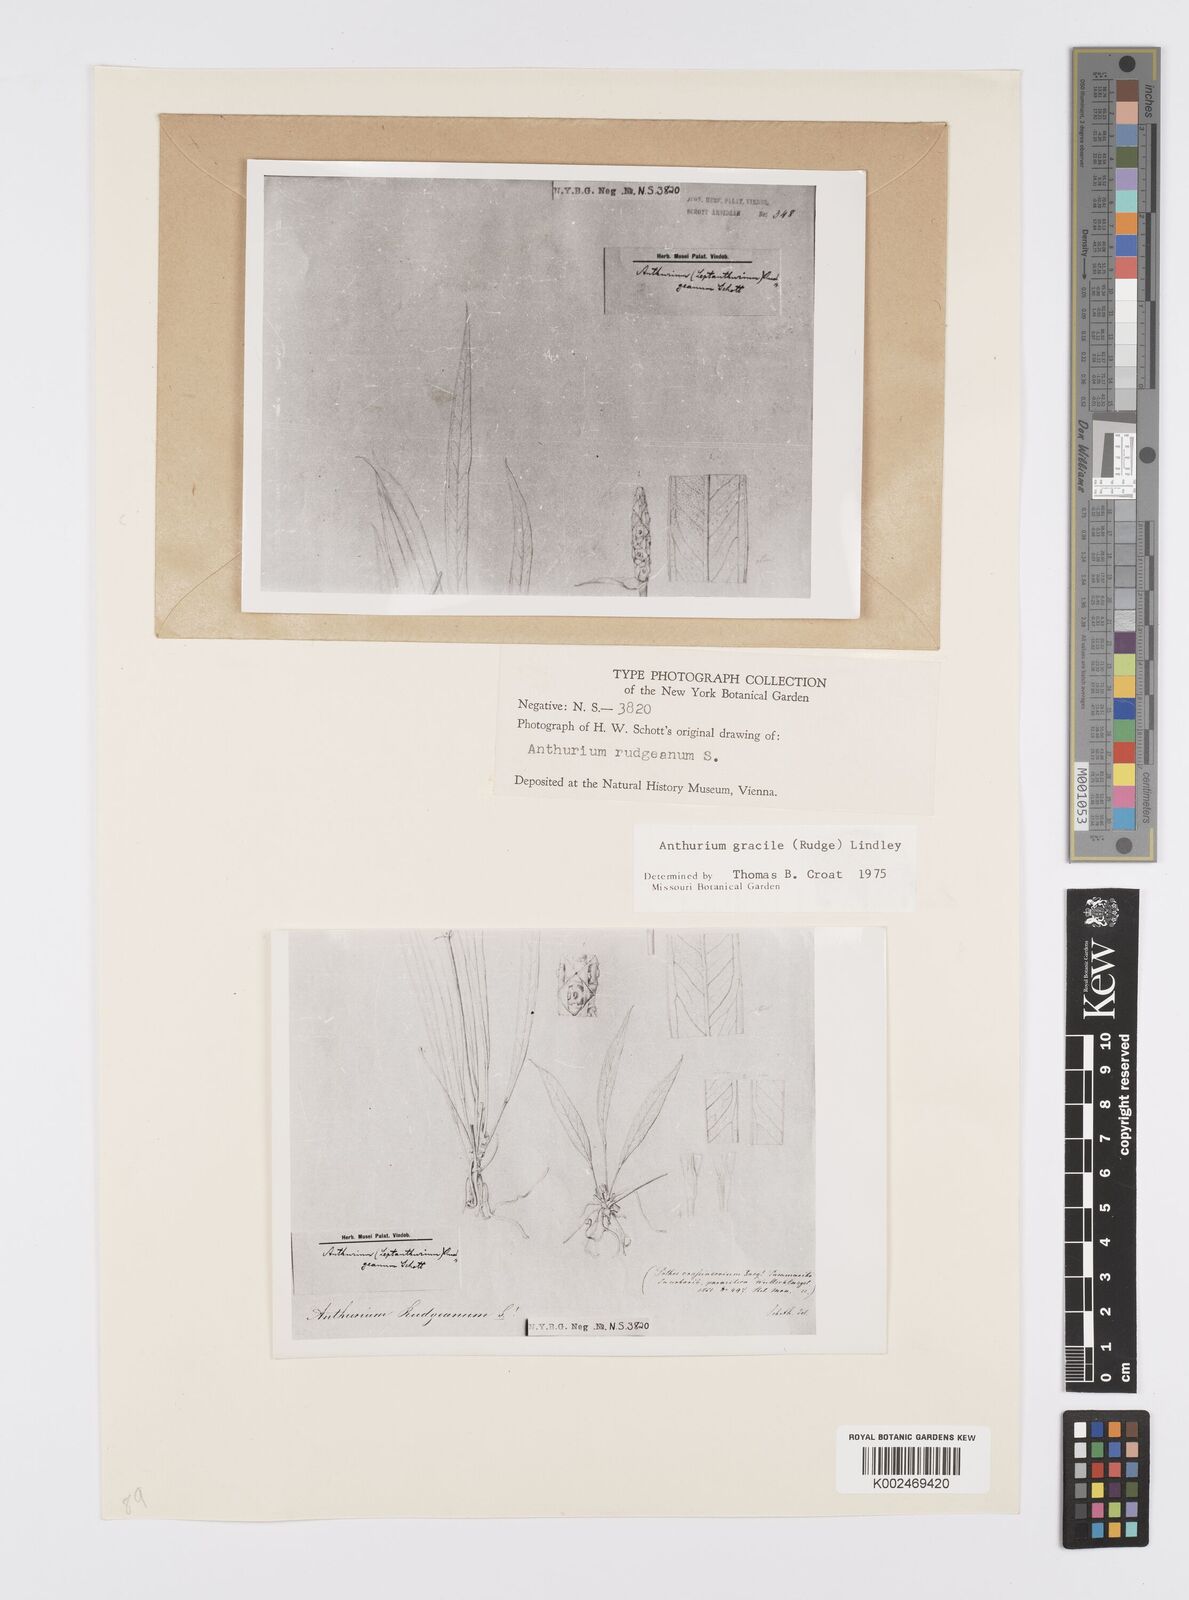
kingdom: Plantae
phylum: Tracheophyta
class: Liliopsida
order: Alismatales
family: Araceae
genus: Anthurium
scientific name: Anthurium gracile
